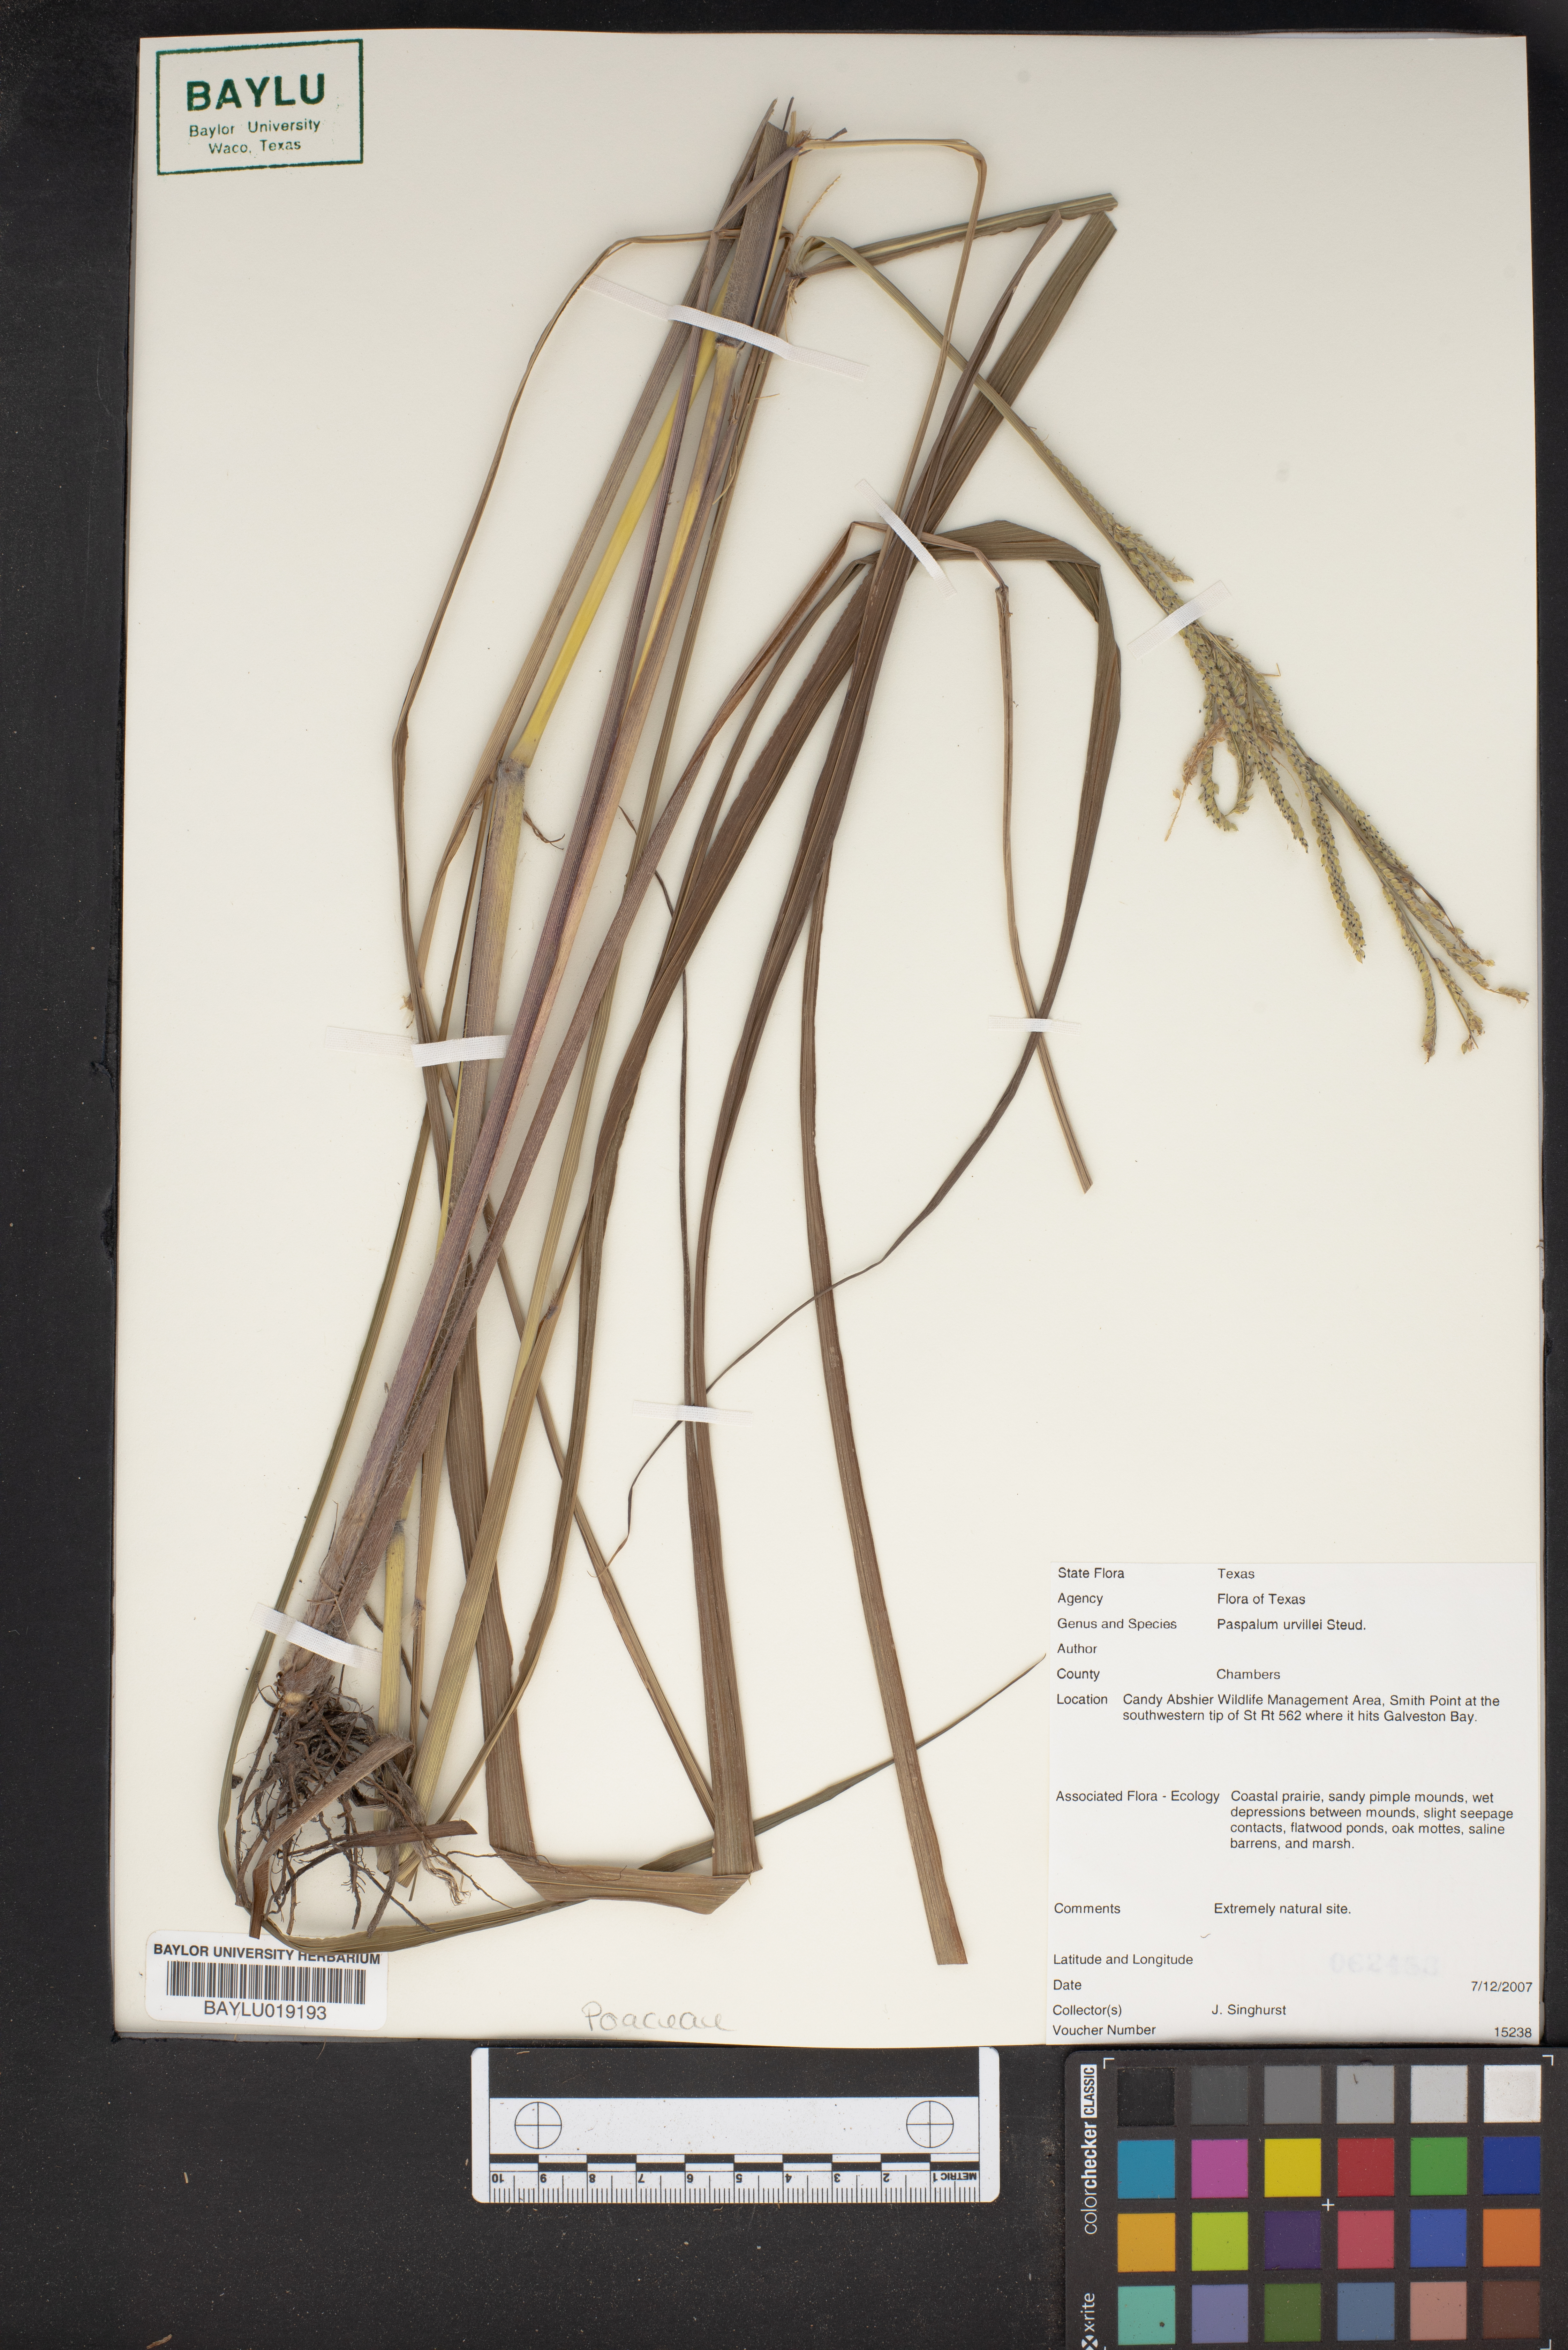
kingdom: Plantae
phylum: Tracheophyta
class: Liliopsida
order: Poales
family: Poaceae
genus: Paspalum
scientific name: Paspalum urvillei
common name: Vasey's grass
